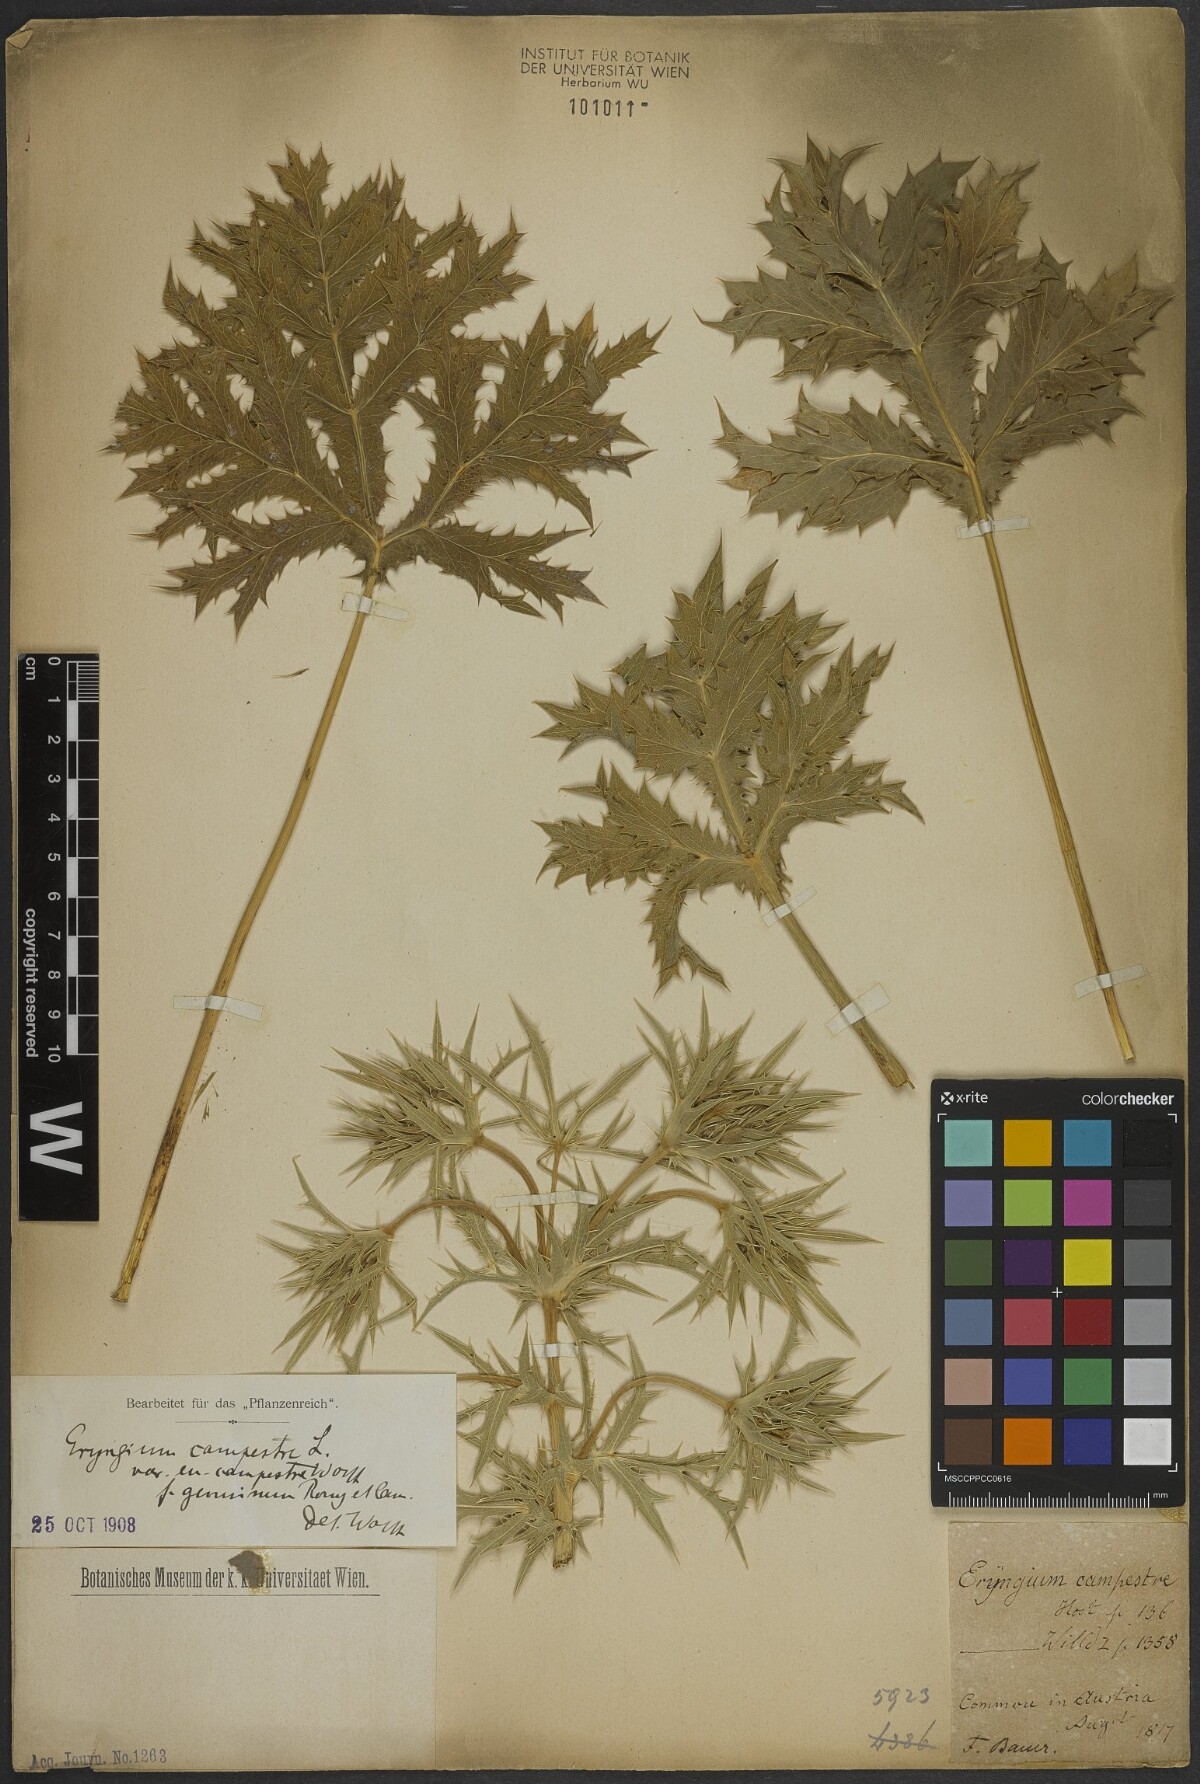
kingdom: Plantae
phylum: Tracheophyta
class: Magnoliopsida
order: Apiales
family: Apiaceae
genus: Eryngium
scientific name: Eryngium campestre
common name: Field eryngo
